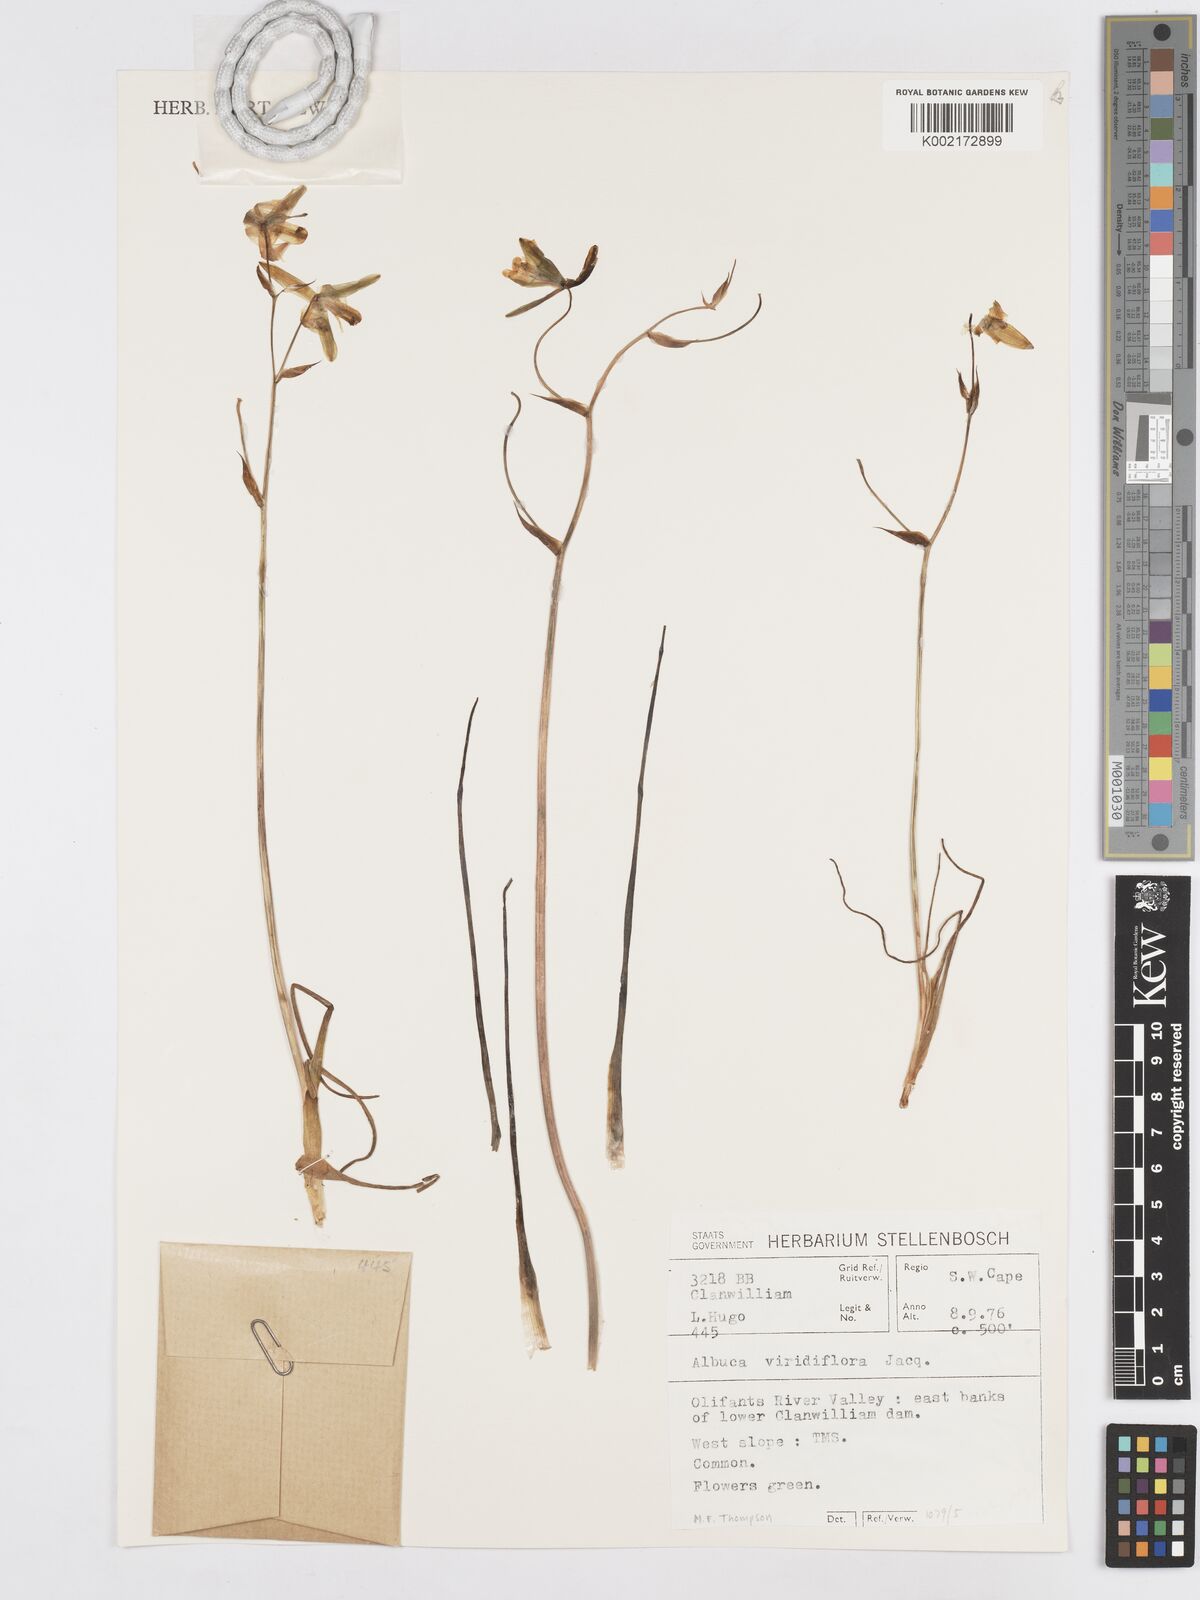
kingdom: Plantae
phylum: Tracheophyta
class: Liliopsida
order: Asparagales
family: Asparagaceae
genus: Albuca
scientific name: Albuca viridiflora
